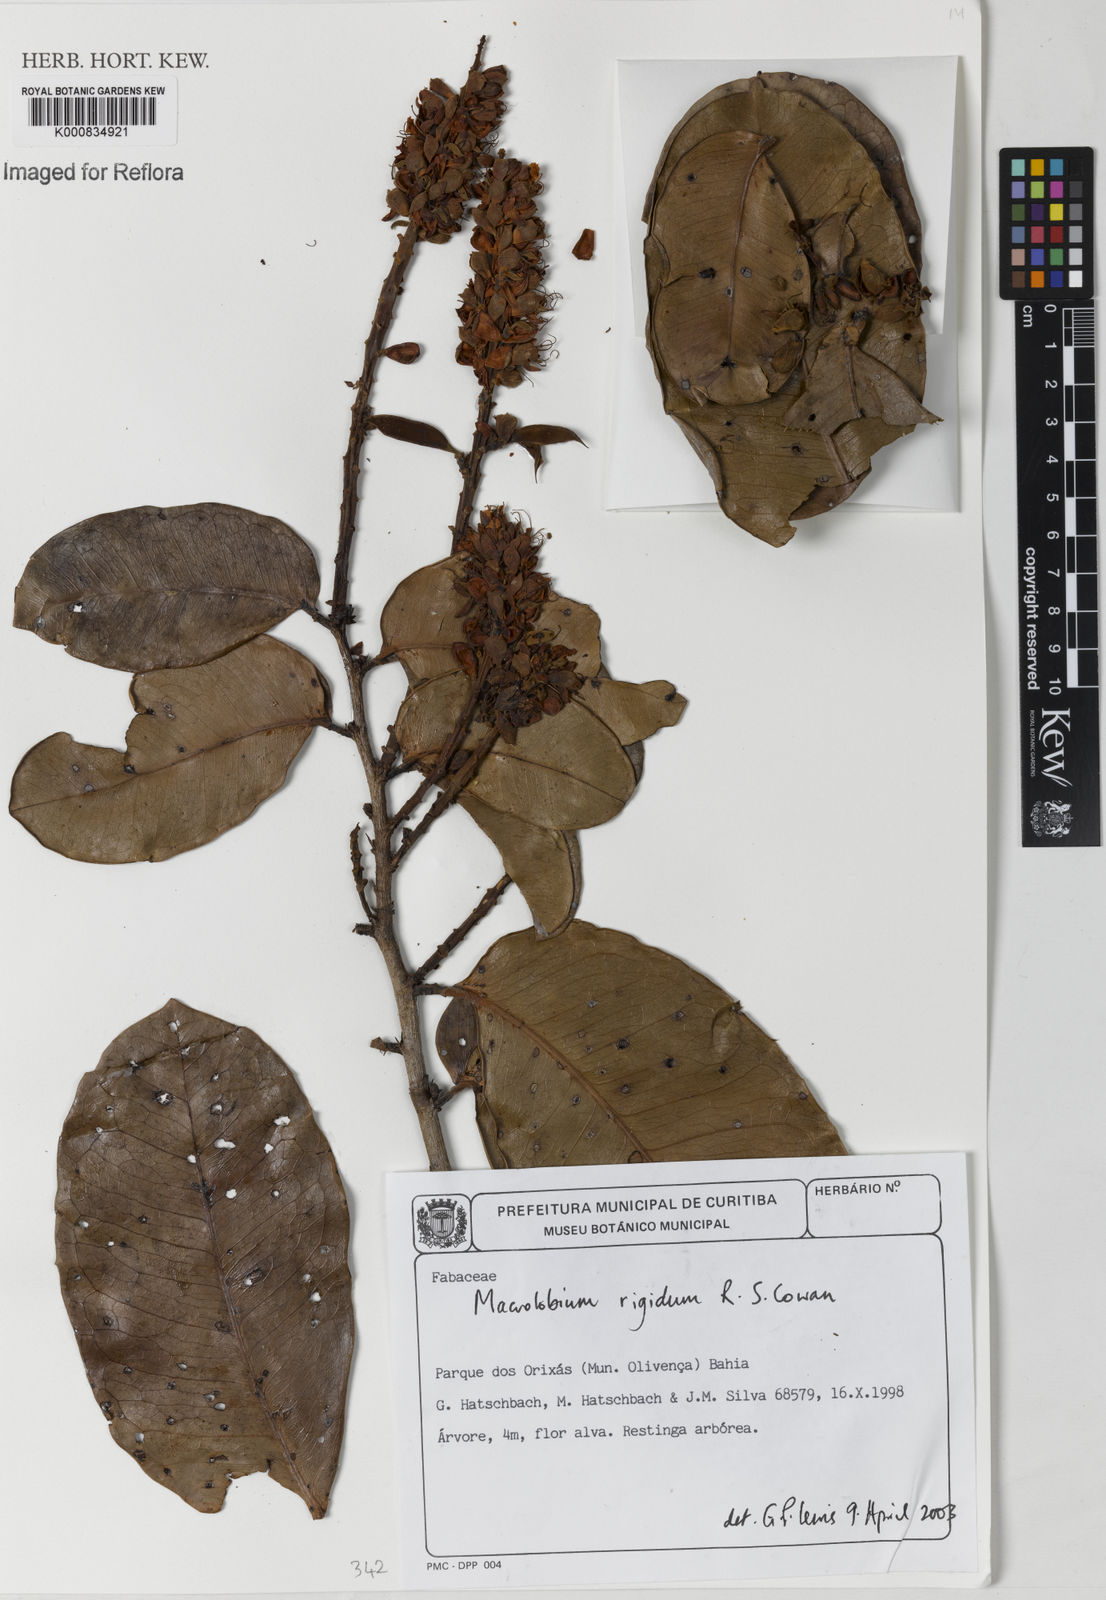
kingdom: Plantae
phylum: Tracheophyta
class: Magnoliopsida
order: Fabales
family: Fabaceae
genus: Macrolobium
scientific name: Macrolobium rigidum
